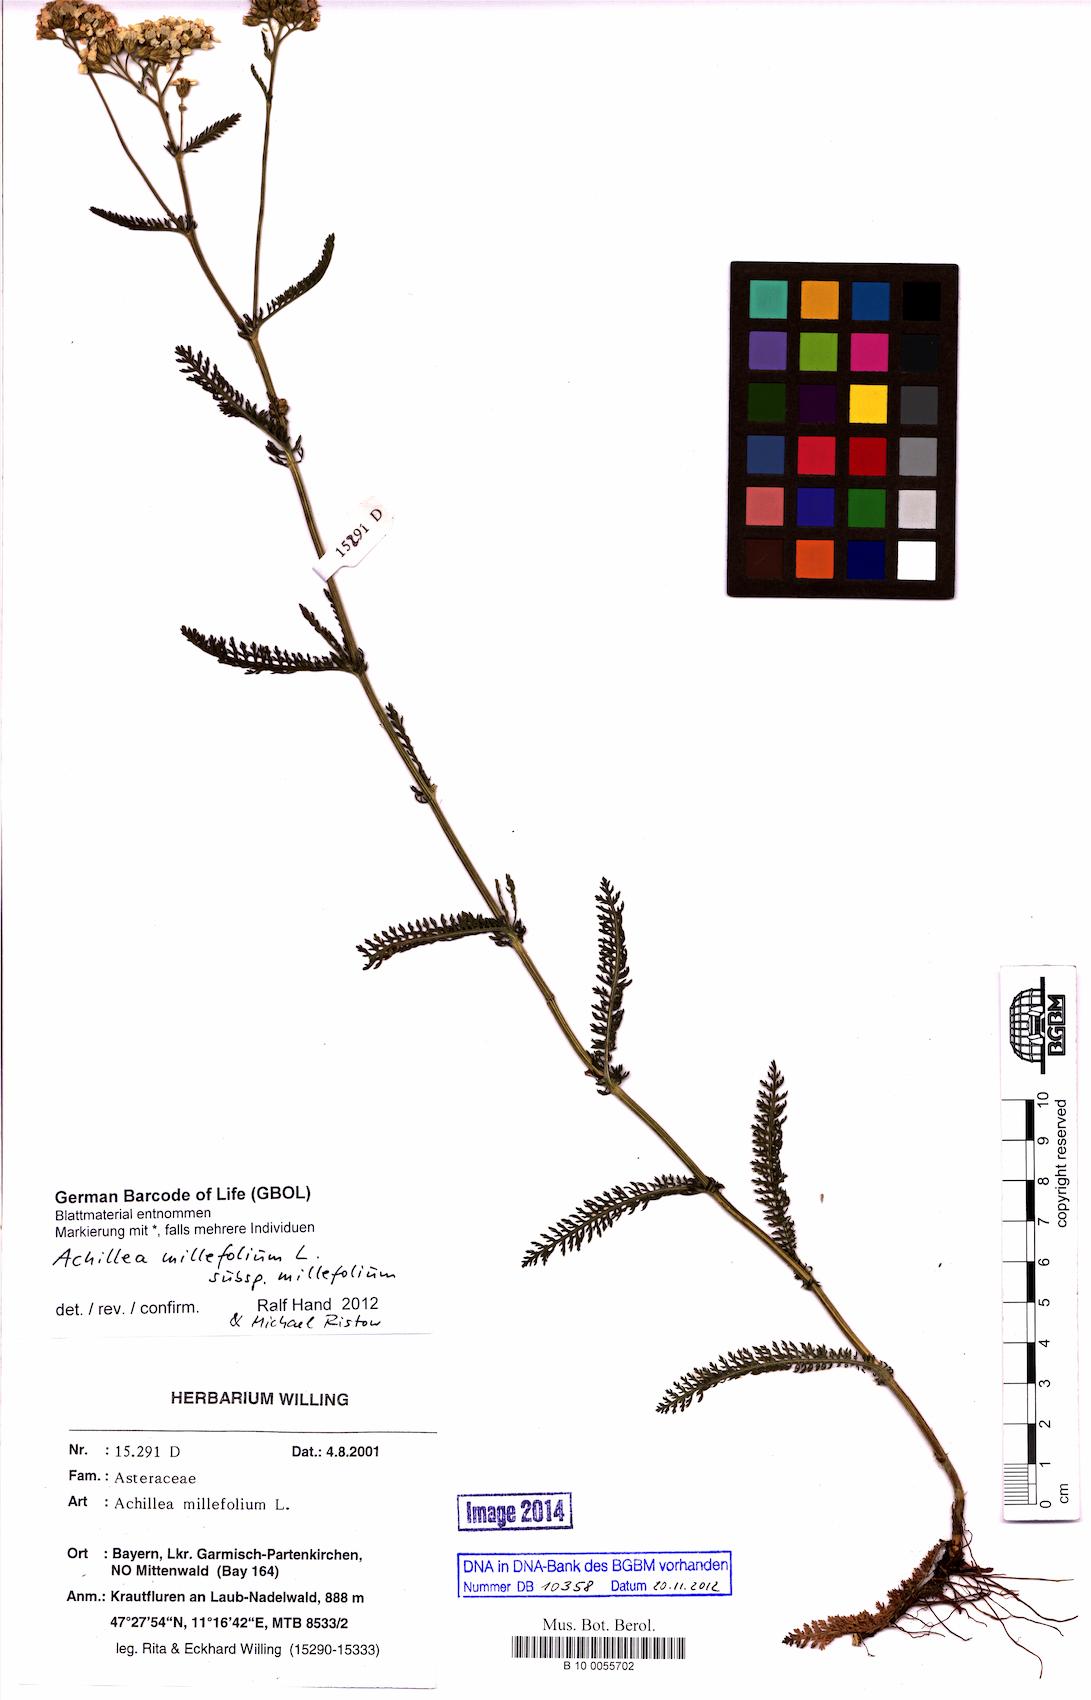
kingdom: Plantae
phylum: Tracheophyta
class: Magnoliopsida
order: Asterales
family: Asteraceae
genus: Achillea
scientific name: Achillea millefolium
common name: Yarrow
